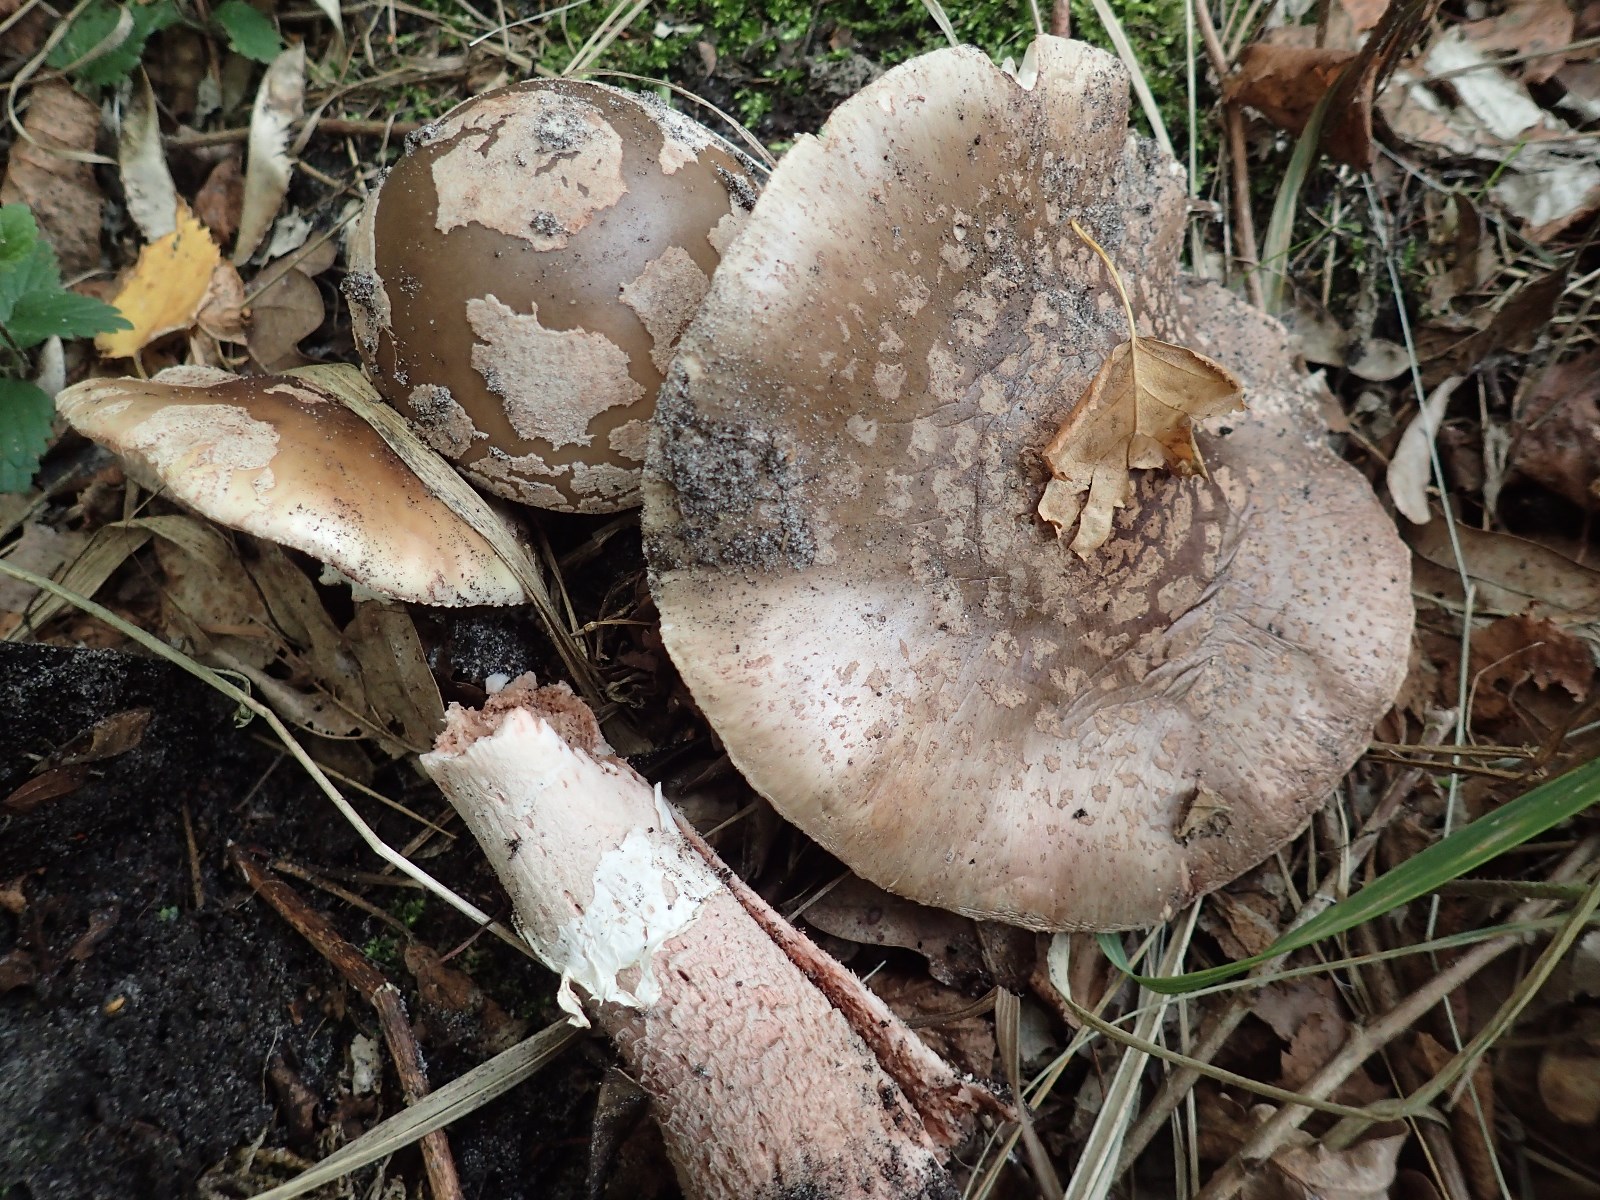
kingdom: Fungi
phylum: Basidiomycota
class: Agaricomycetes
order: Agaricales
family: Amanitaceae
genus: Amanita
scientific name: Amanita rubescens
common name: rødmende fluesvamp
